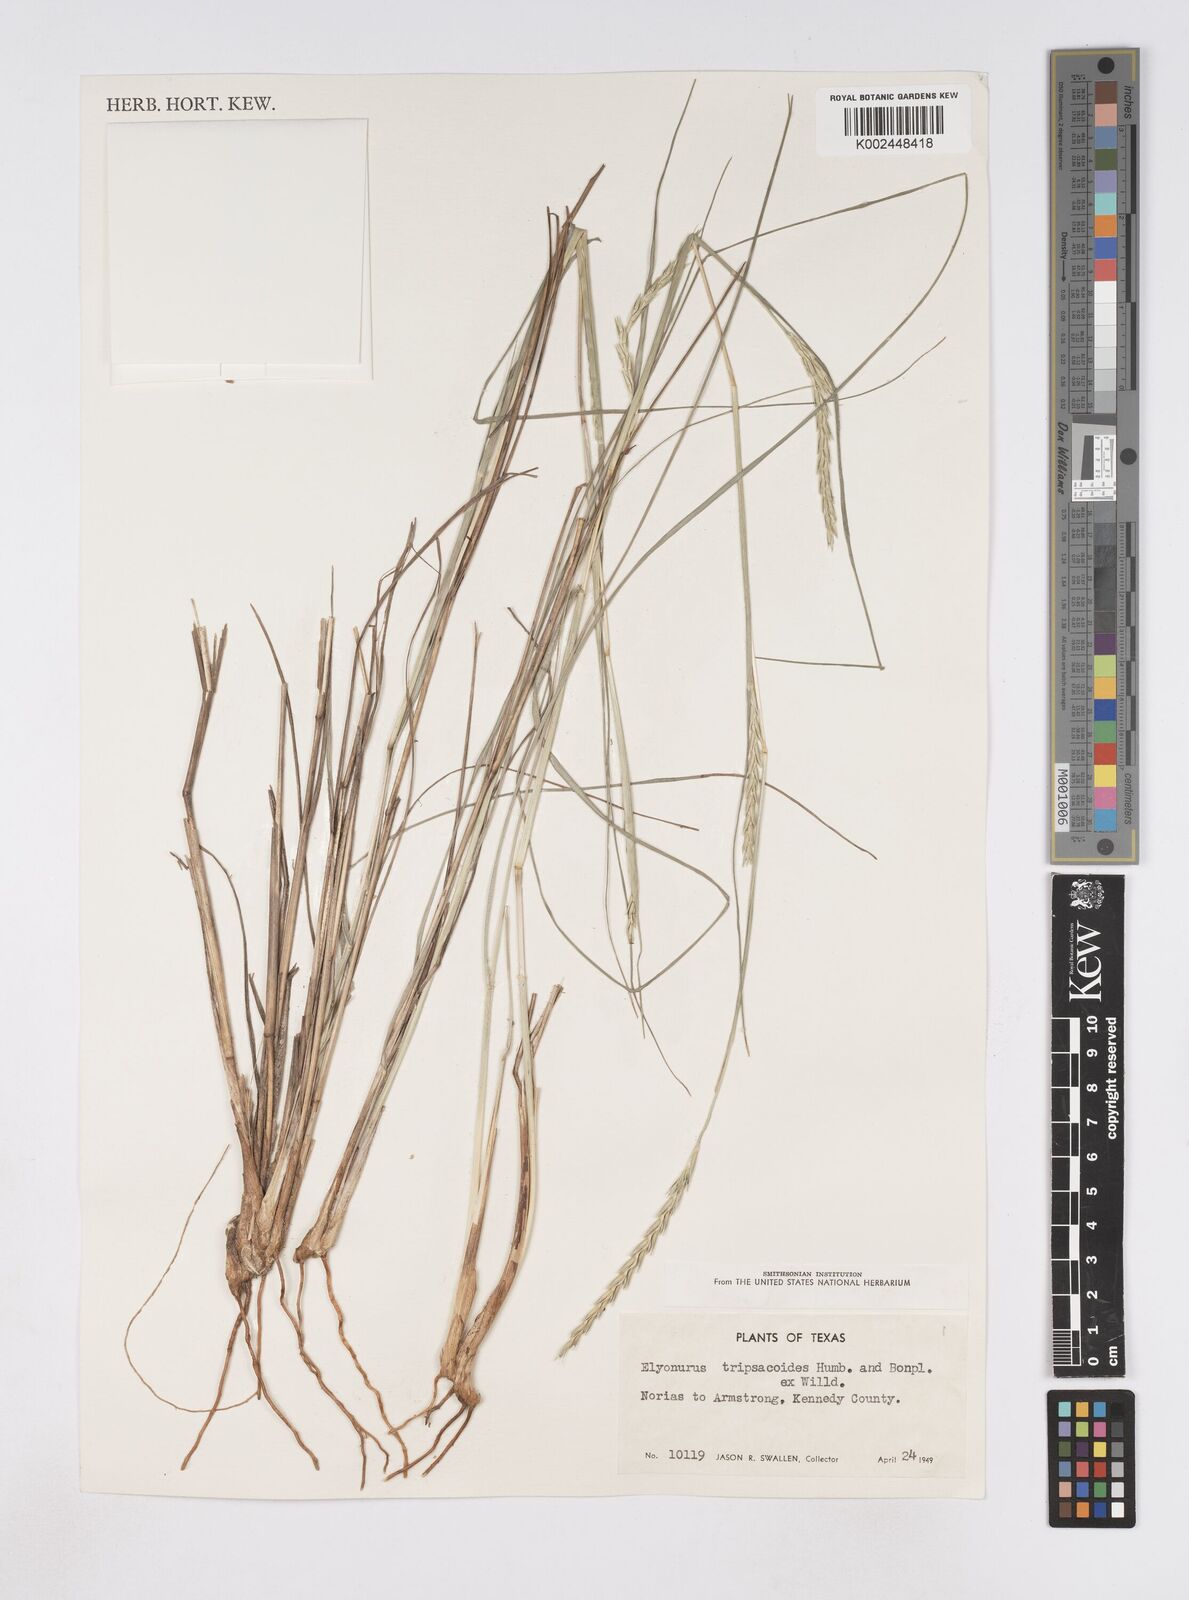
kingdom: Plantae
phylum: Tracheophyta
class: Liliopsida
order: Poales
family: Poaceae
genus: Elionurus
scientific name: Elionurus tripsacoides
